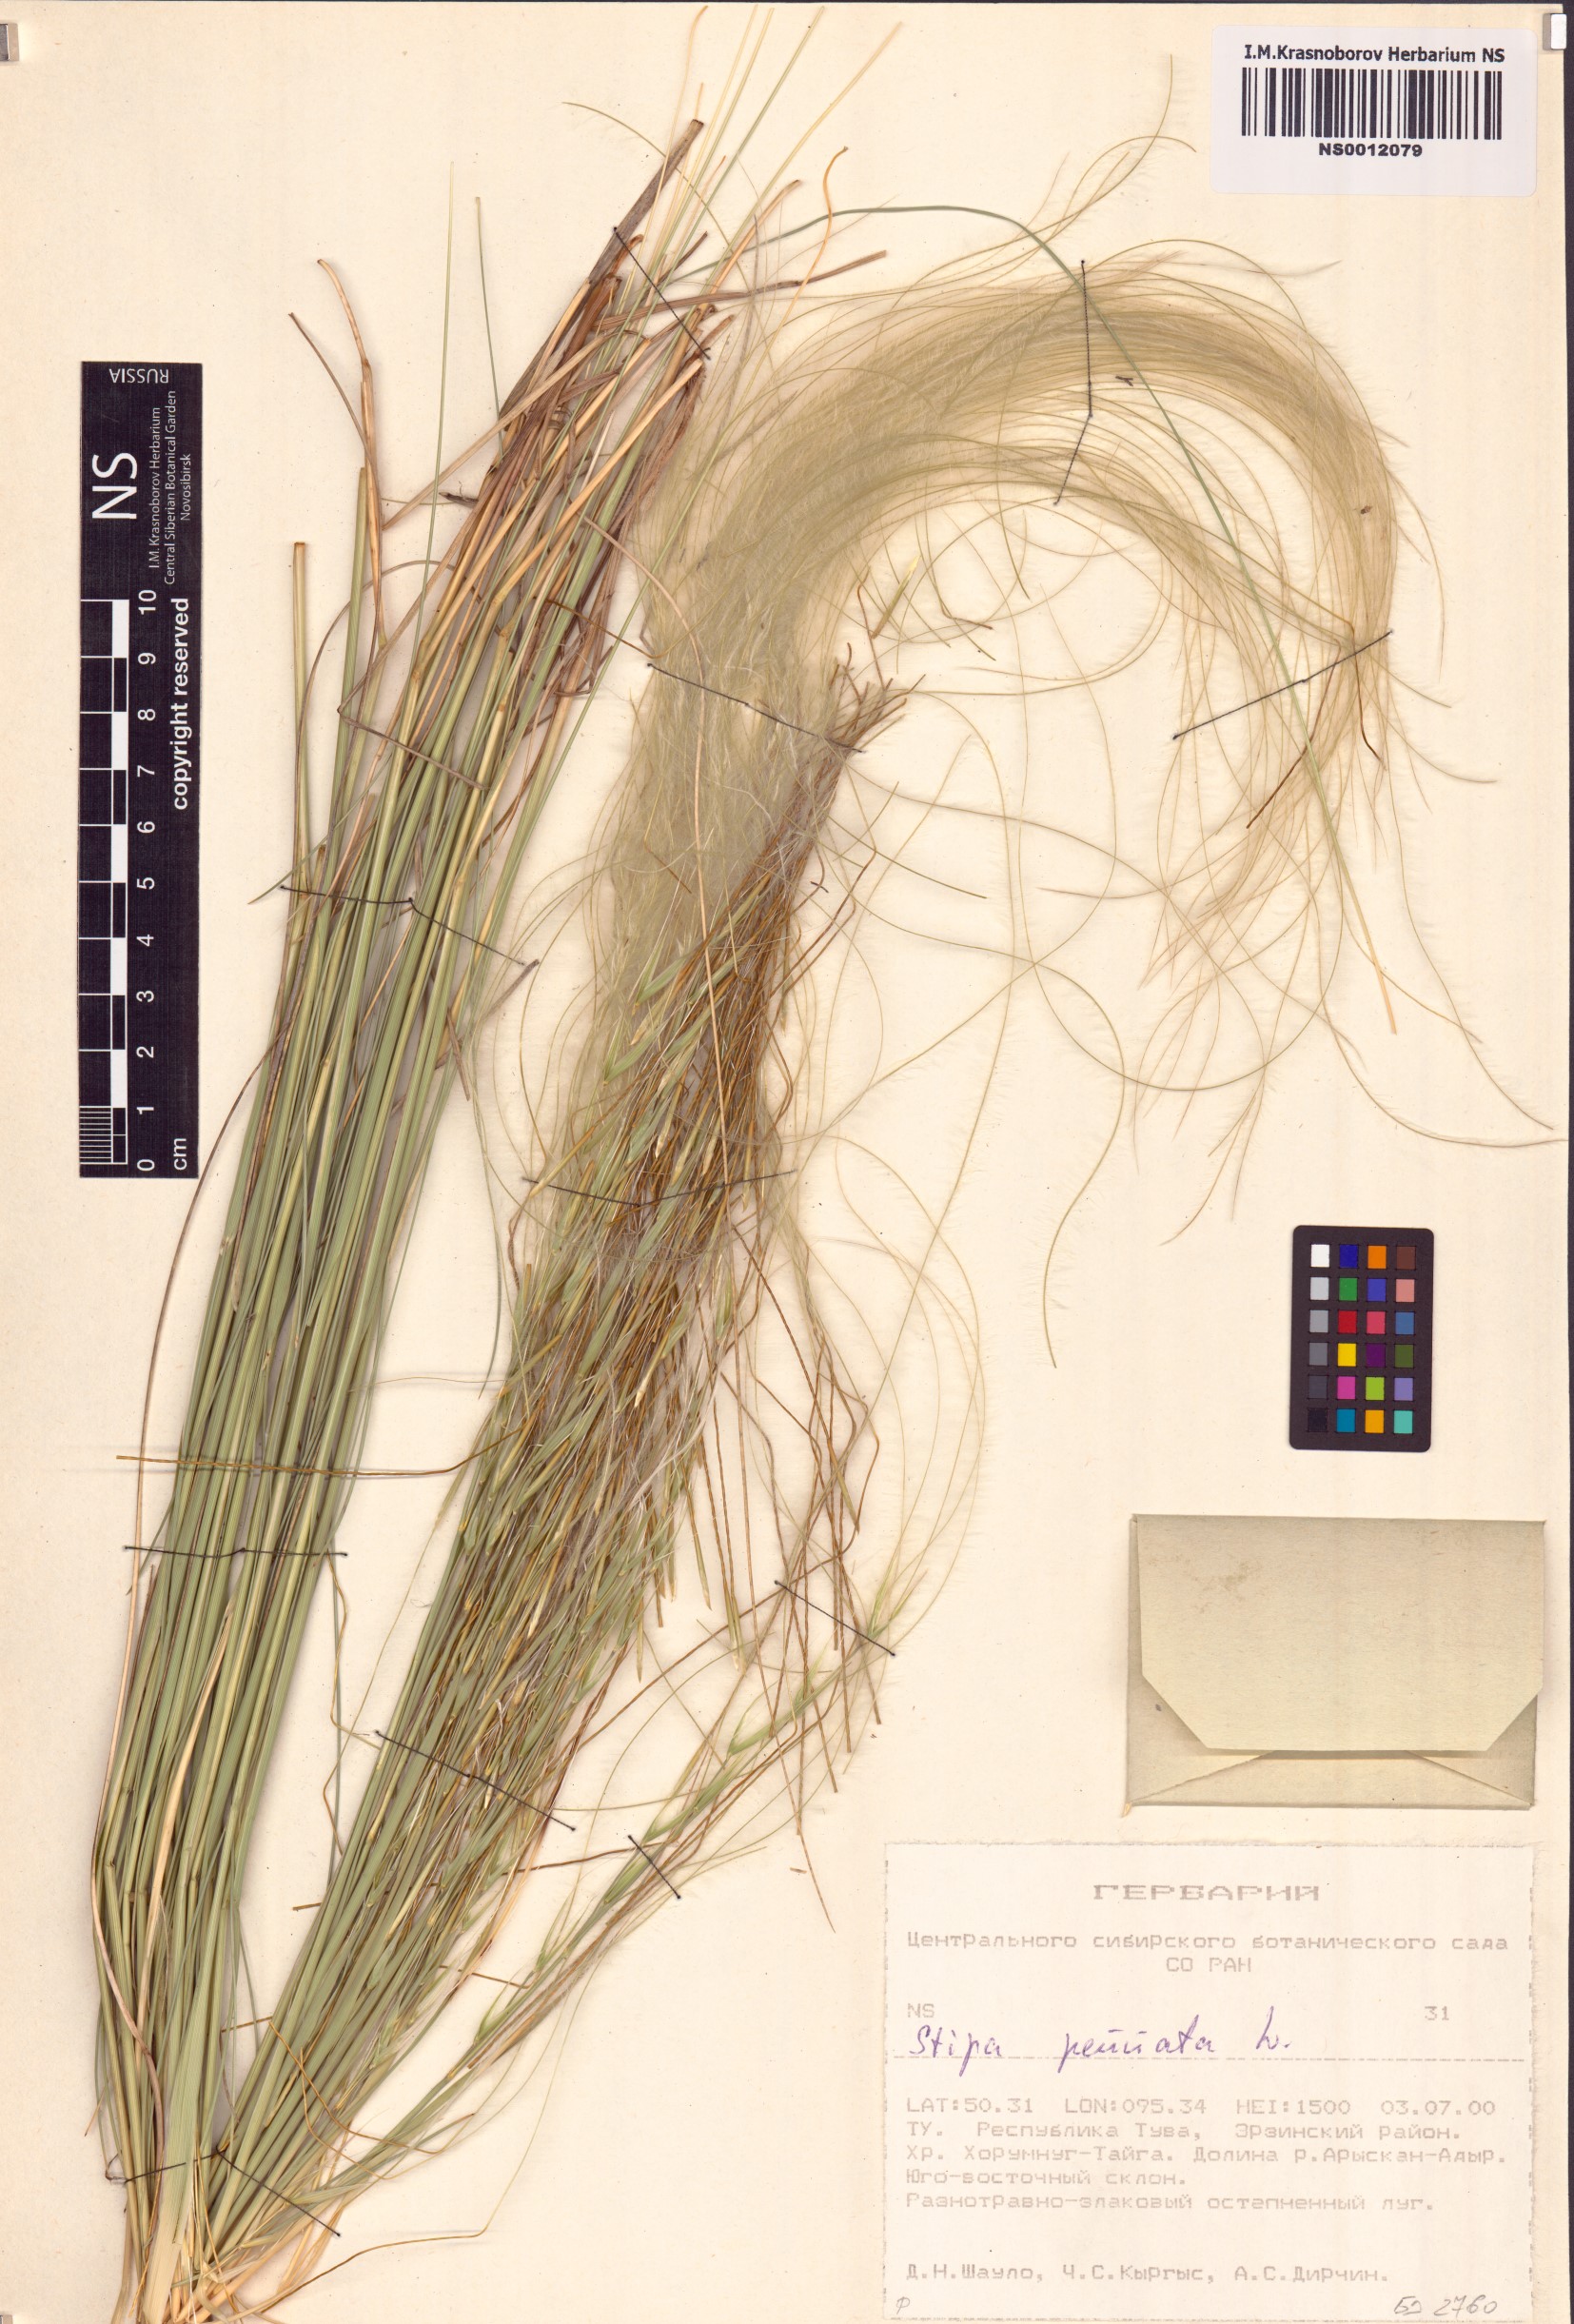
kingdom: Plantae
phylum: Tracheophyta
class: Liliopsida
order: Poales
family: Poaceae
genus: Stipa
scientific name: Stipa pennata
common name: European feather grass
